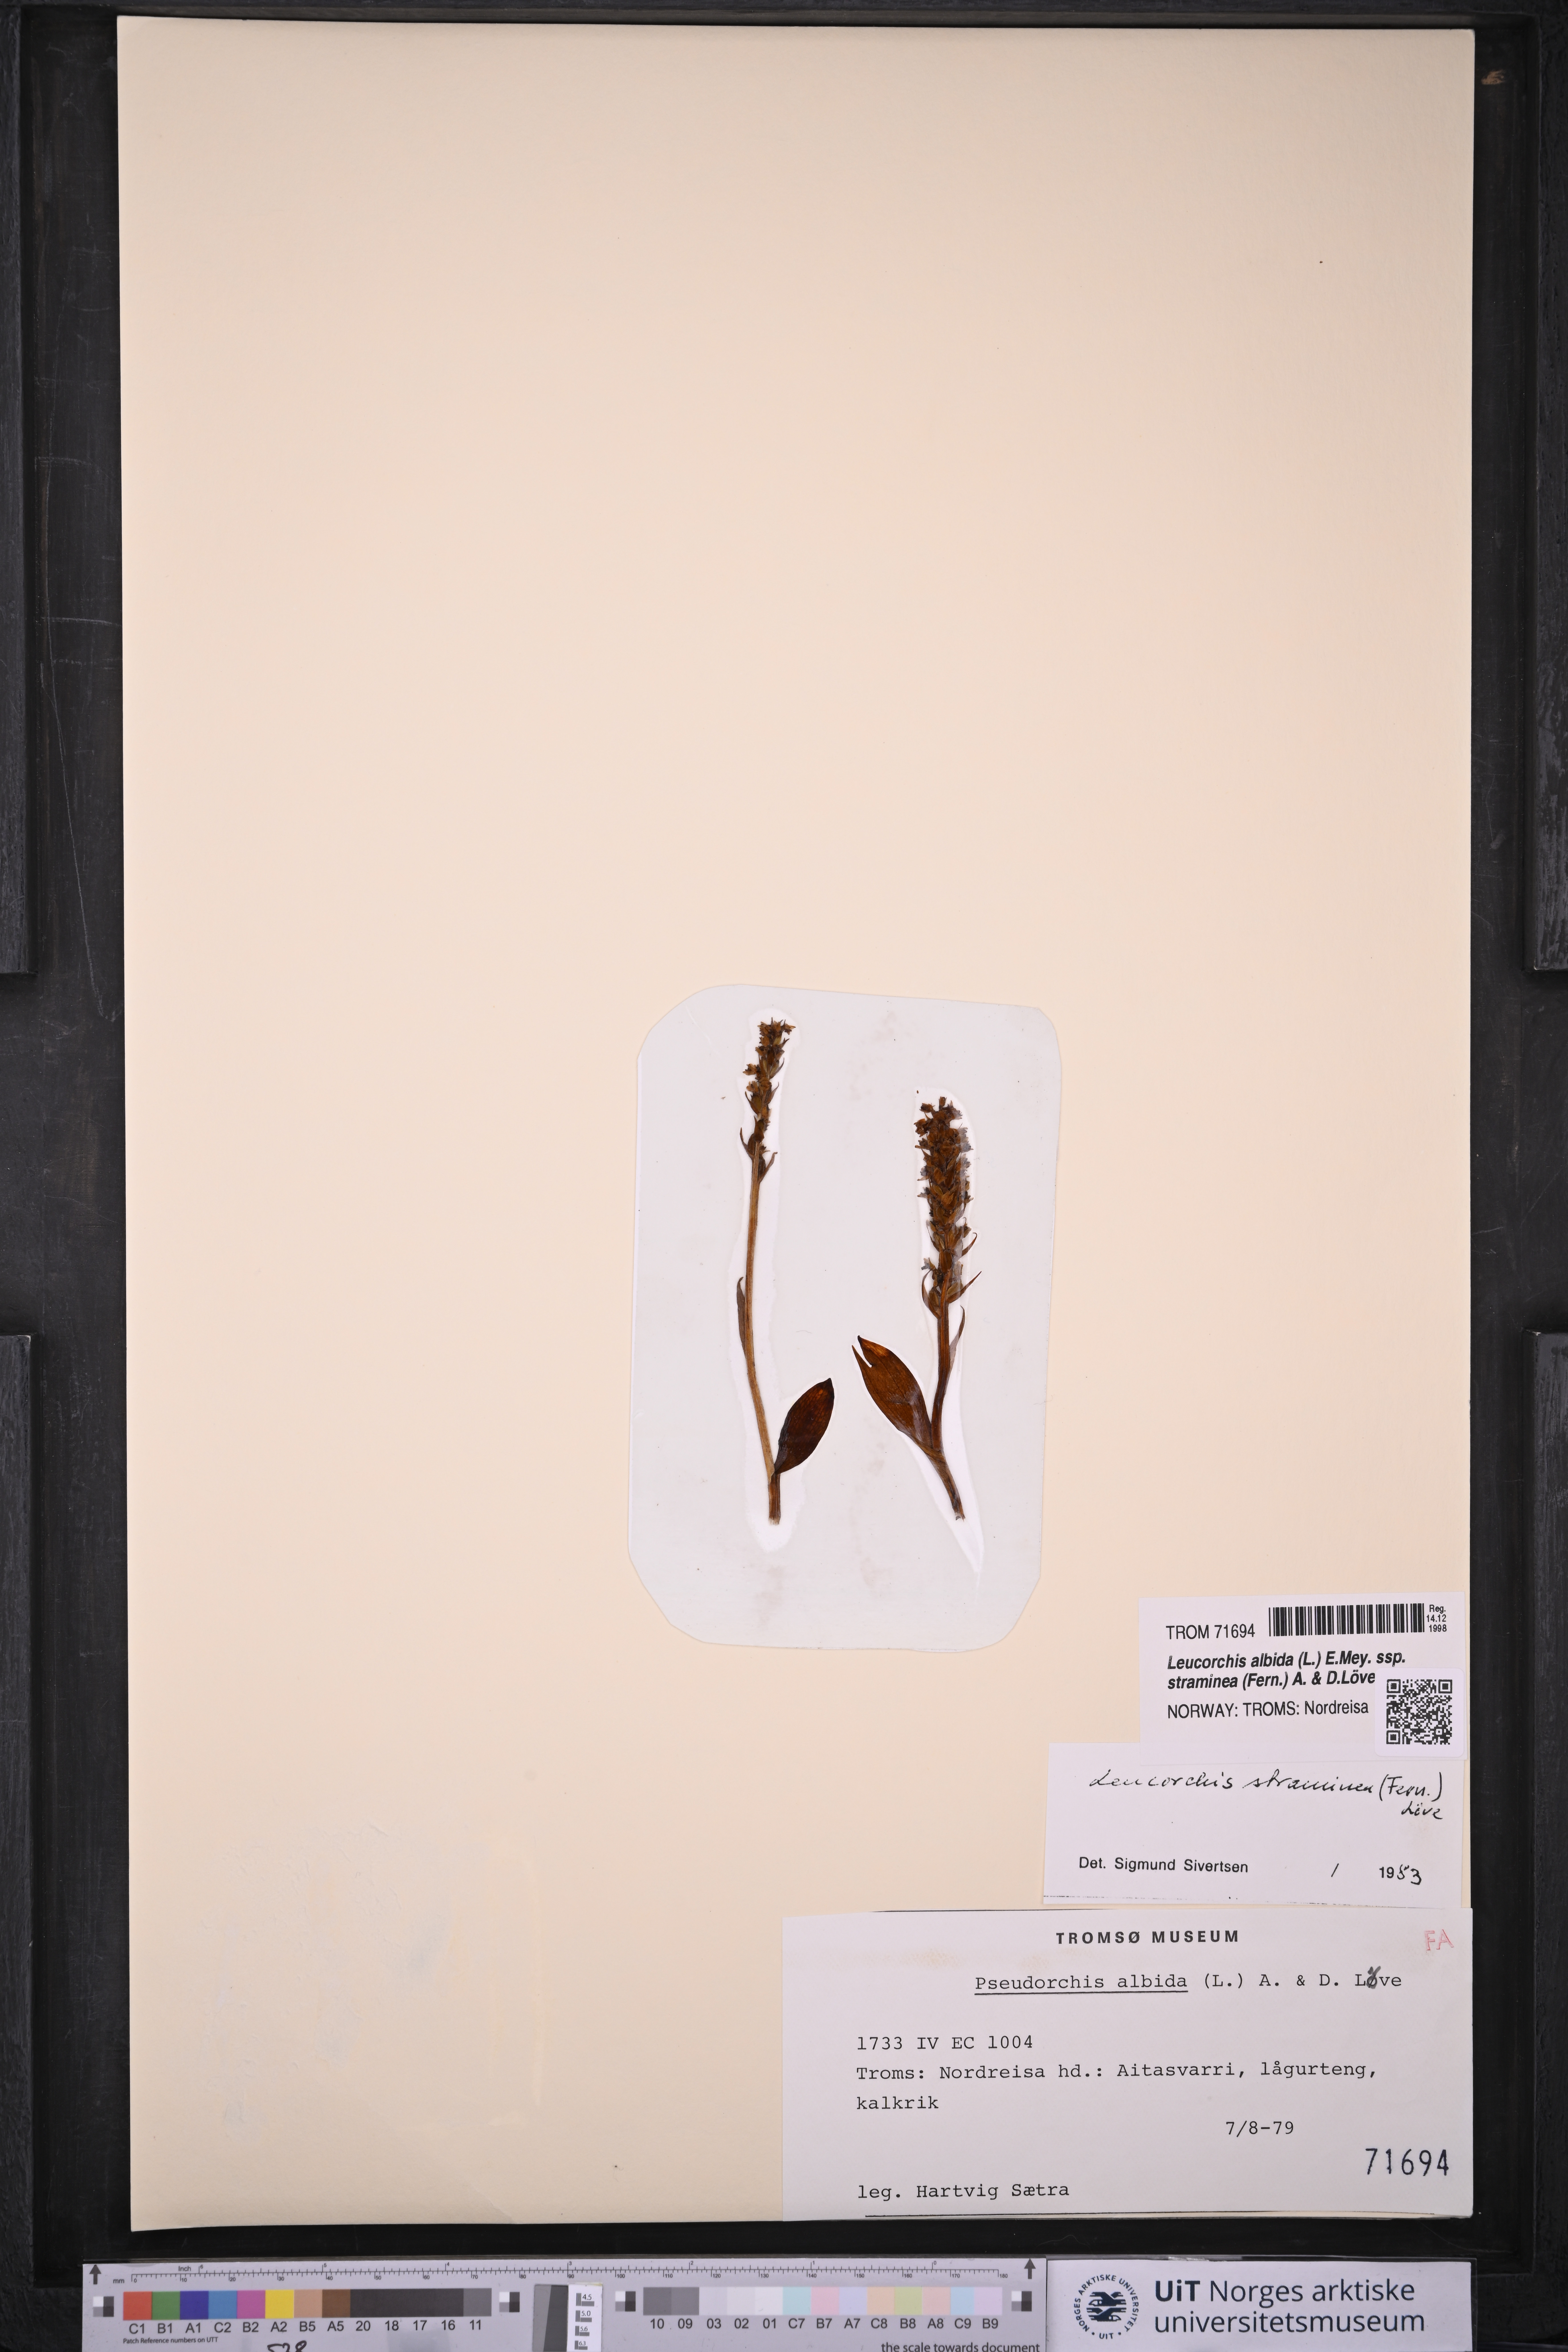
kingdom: Plantae
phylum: Tracheophyta
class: Liliopsida
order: Asparagales
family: Orchidaceae
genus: Pseudorchis
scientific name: Pseudorchis straminea
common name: Vanilla-scented bog orchid
